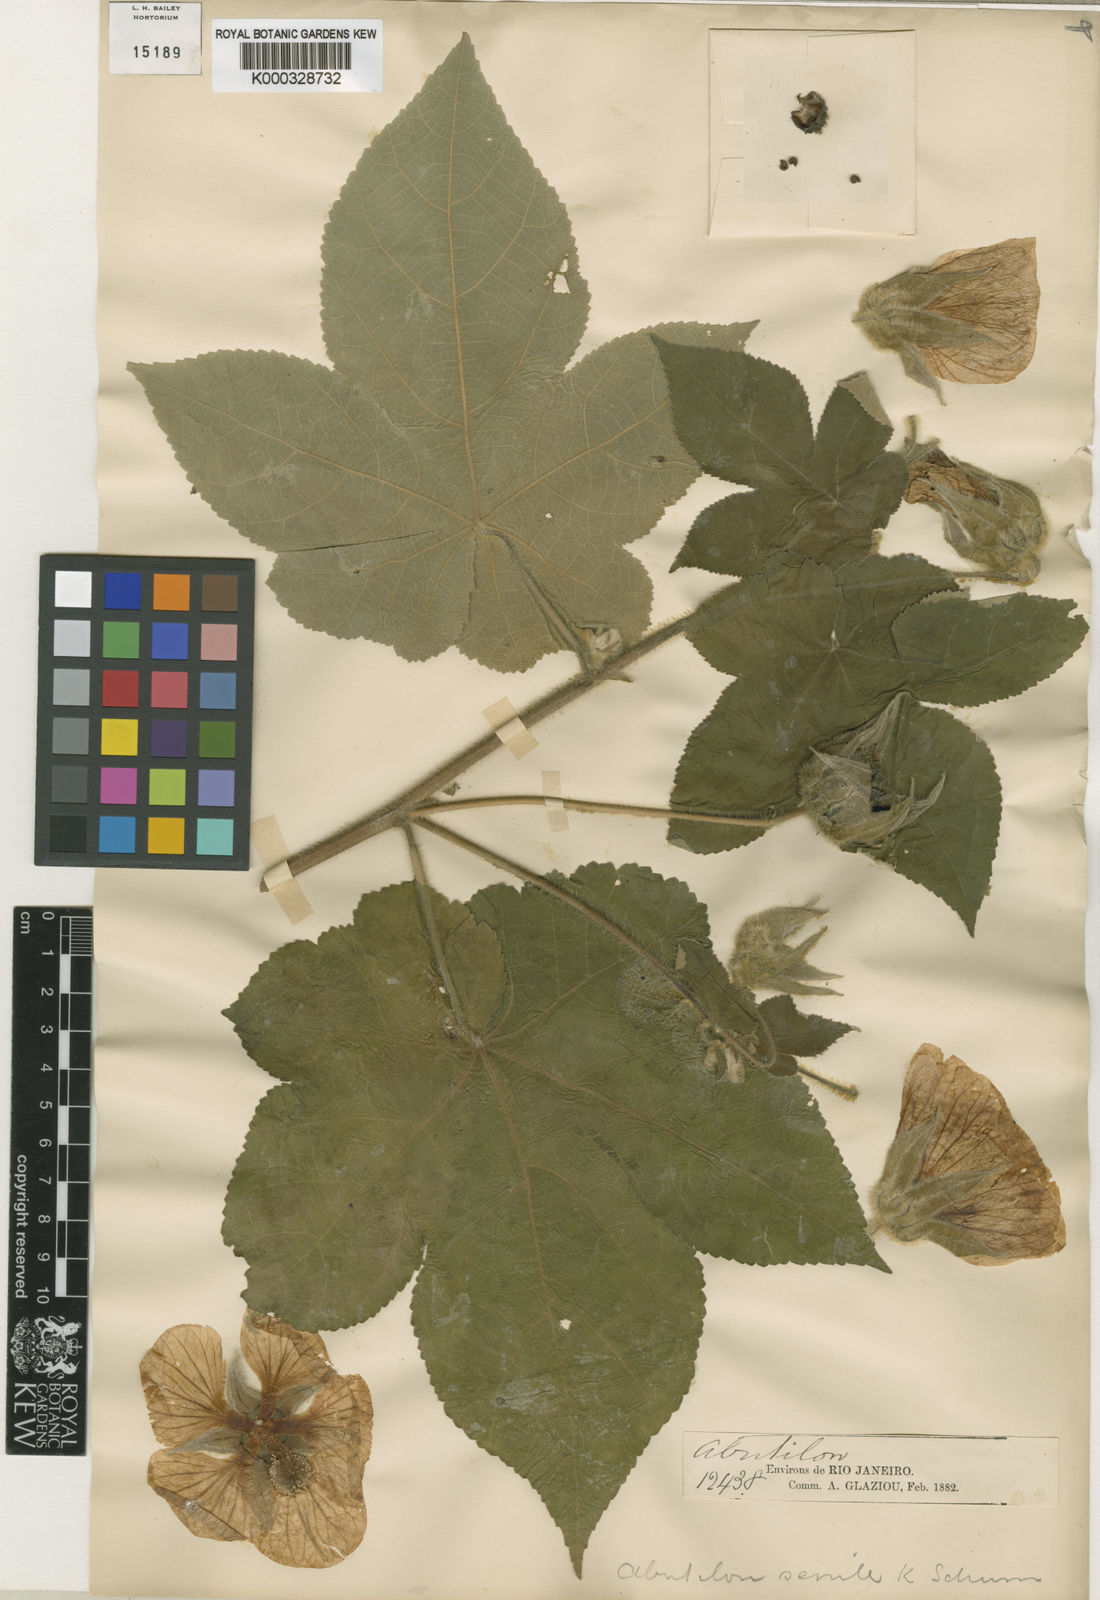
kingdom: Plantae
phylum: Tracheophyta
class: Magnoliopsida
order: Malvales
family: Malvaceae
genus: Callianthe
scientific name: Callianthe senilis
